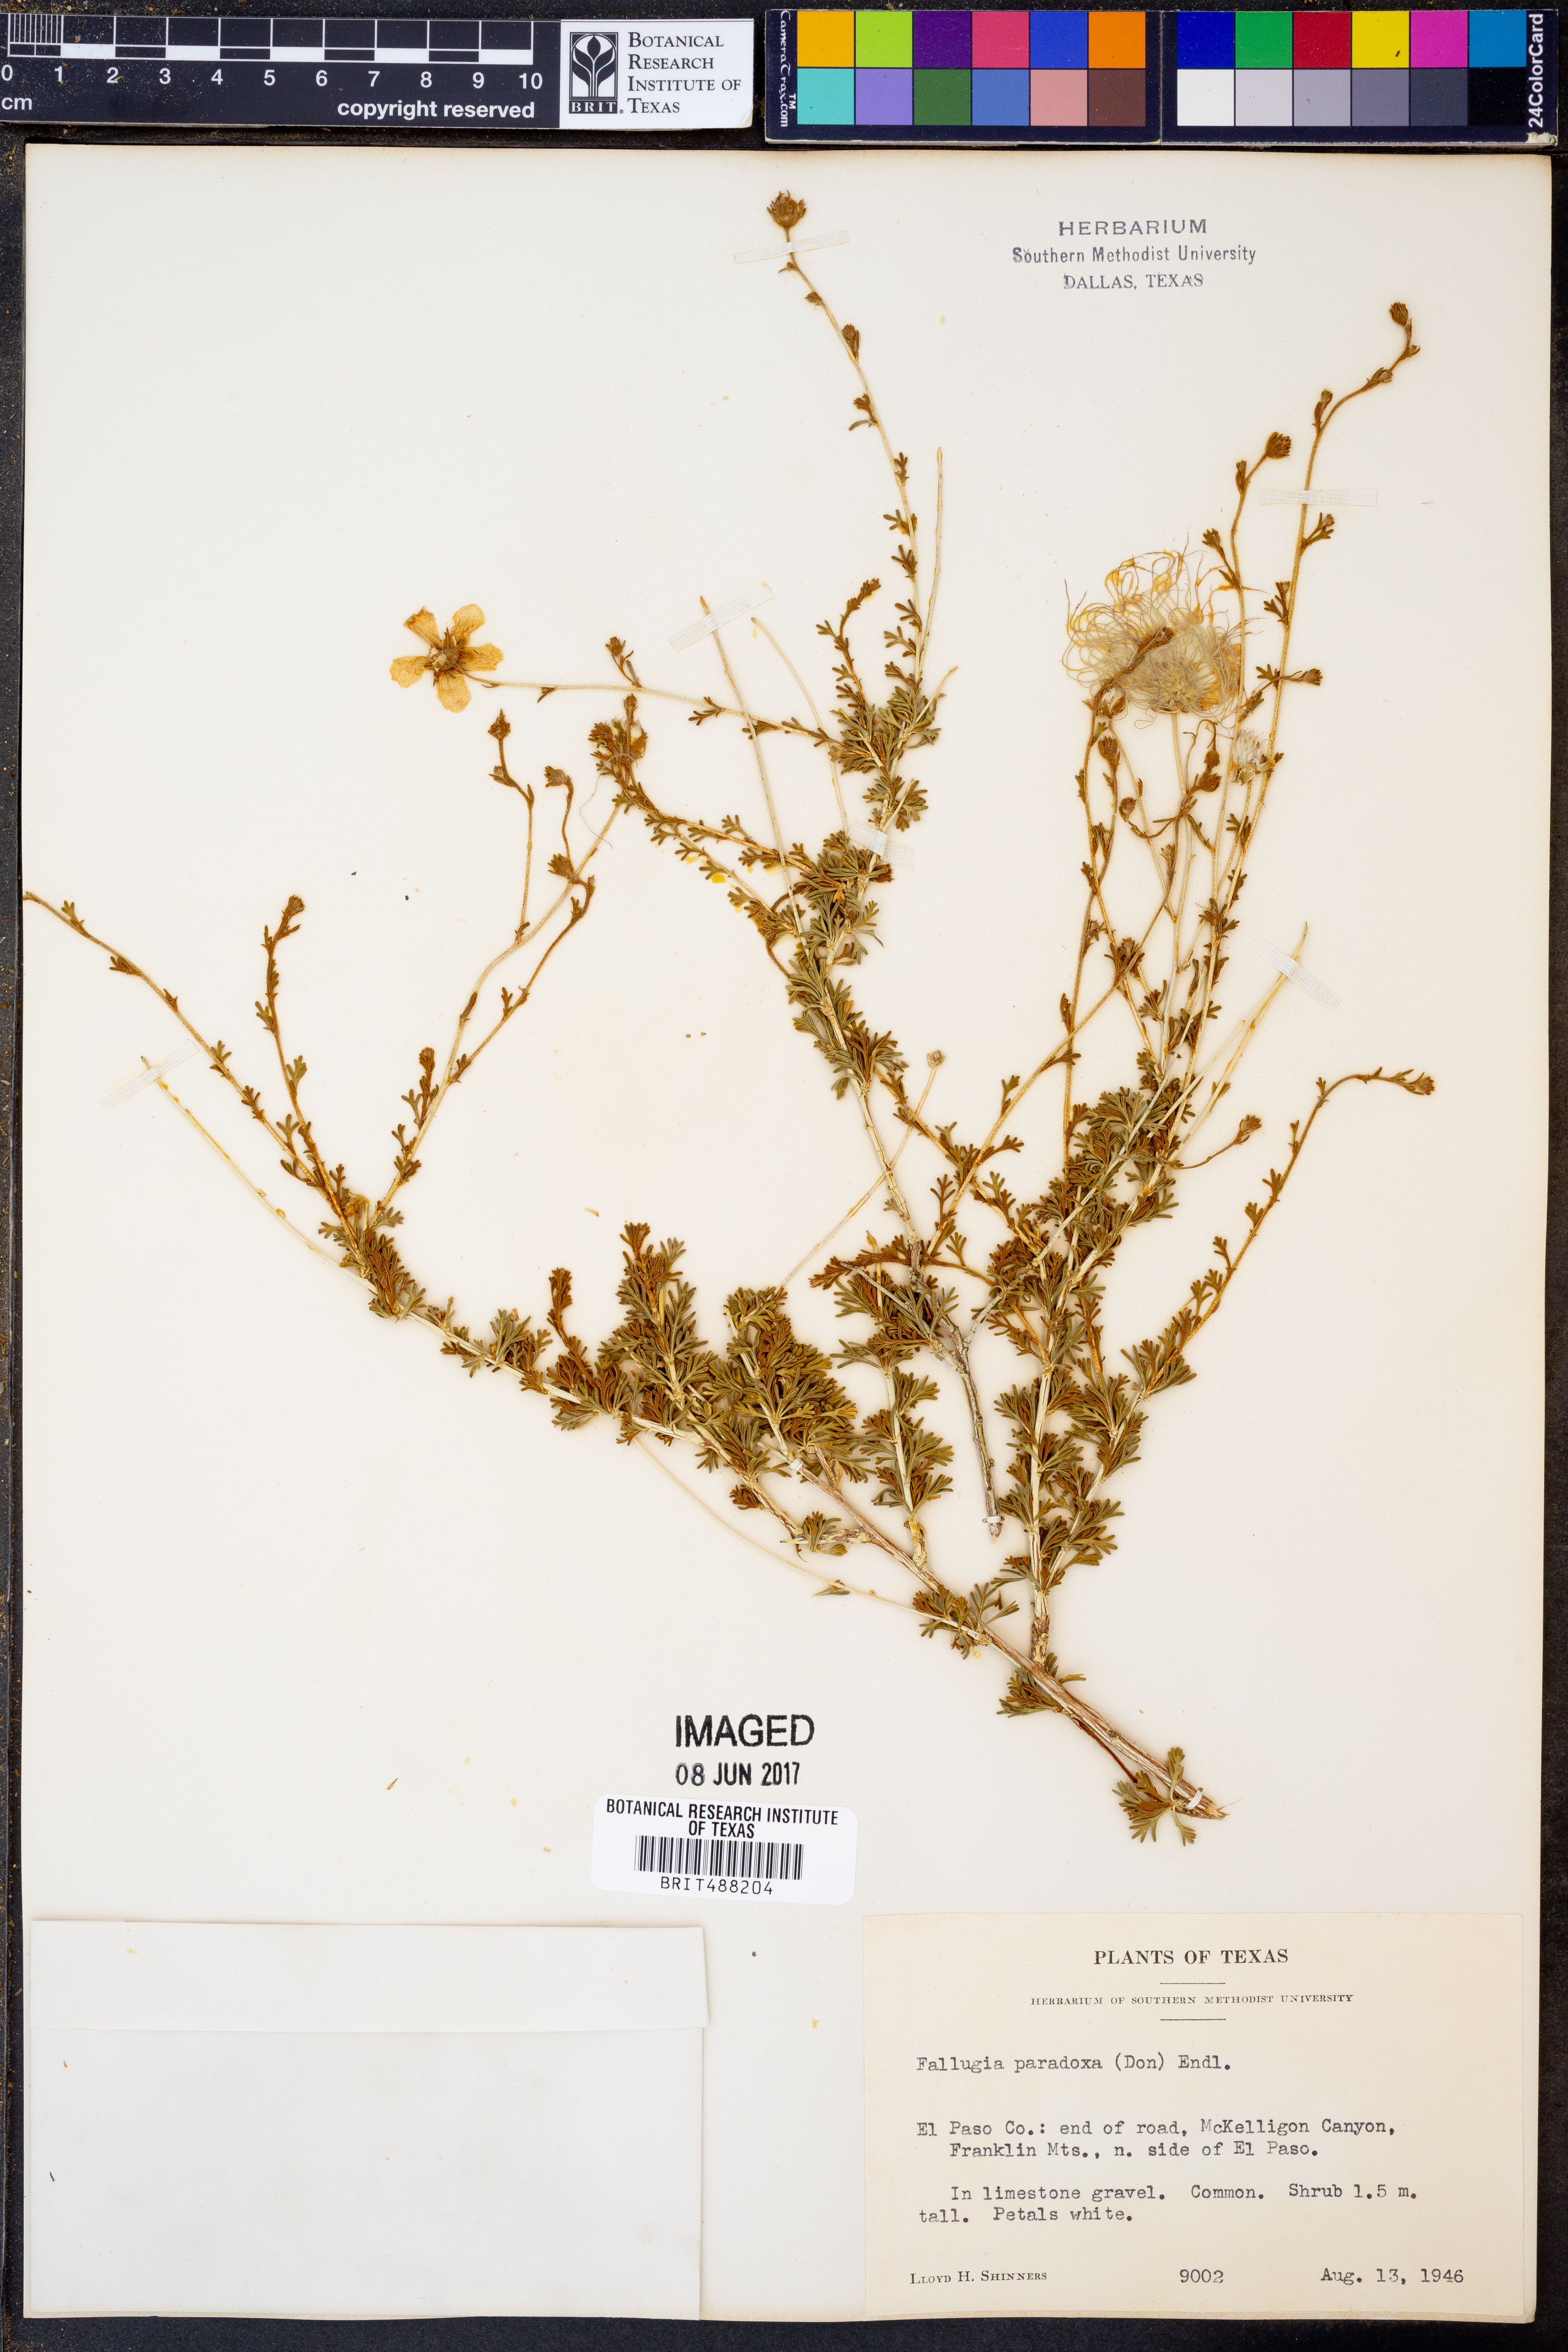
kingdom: Plantae
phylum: Tracheophyta
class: Magnoliopsida
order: Rosales
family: Rosaceae
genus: Fallugia
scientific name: Fallugia paradoxa
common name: Apache-plume
